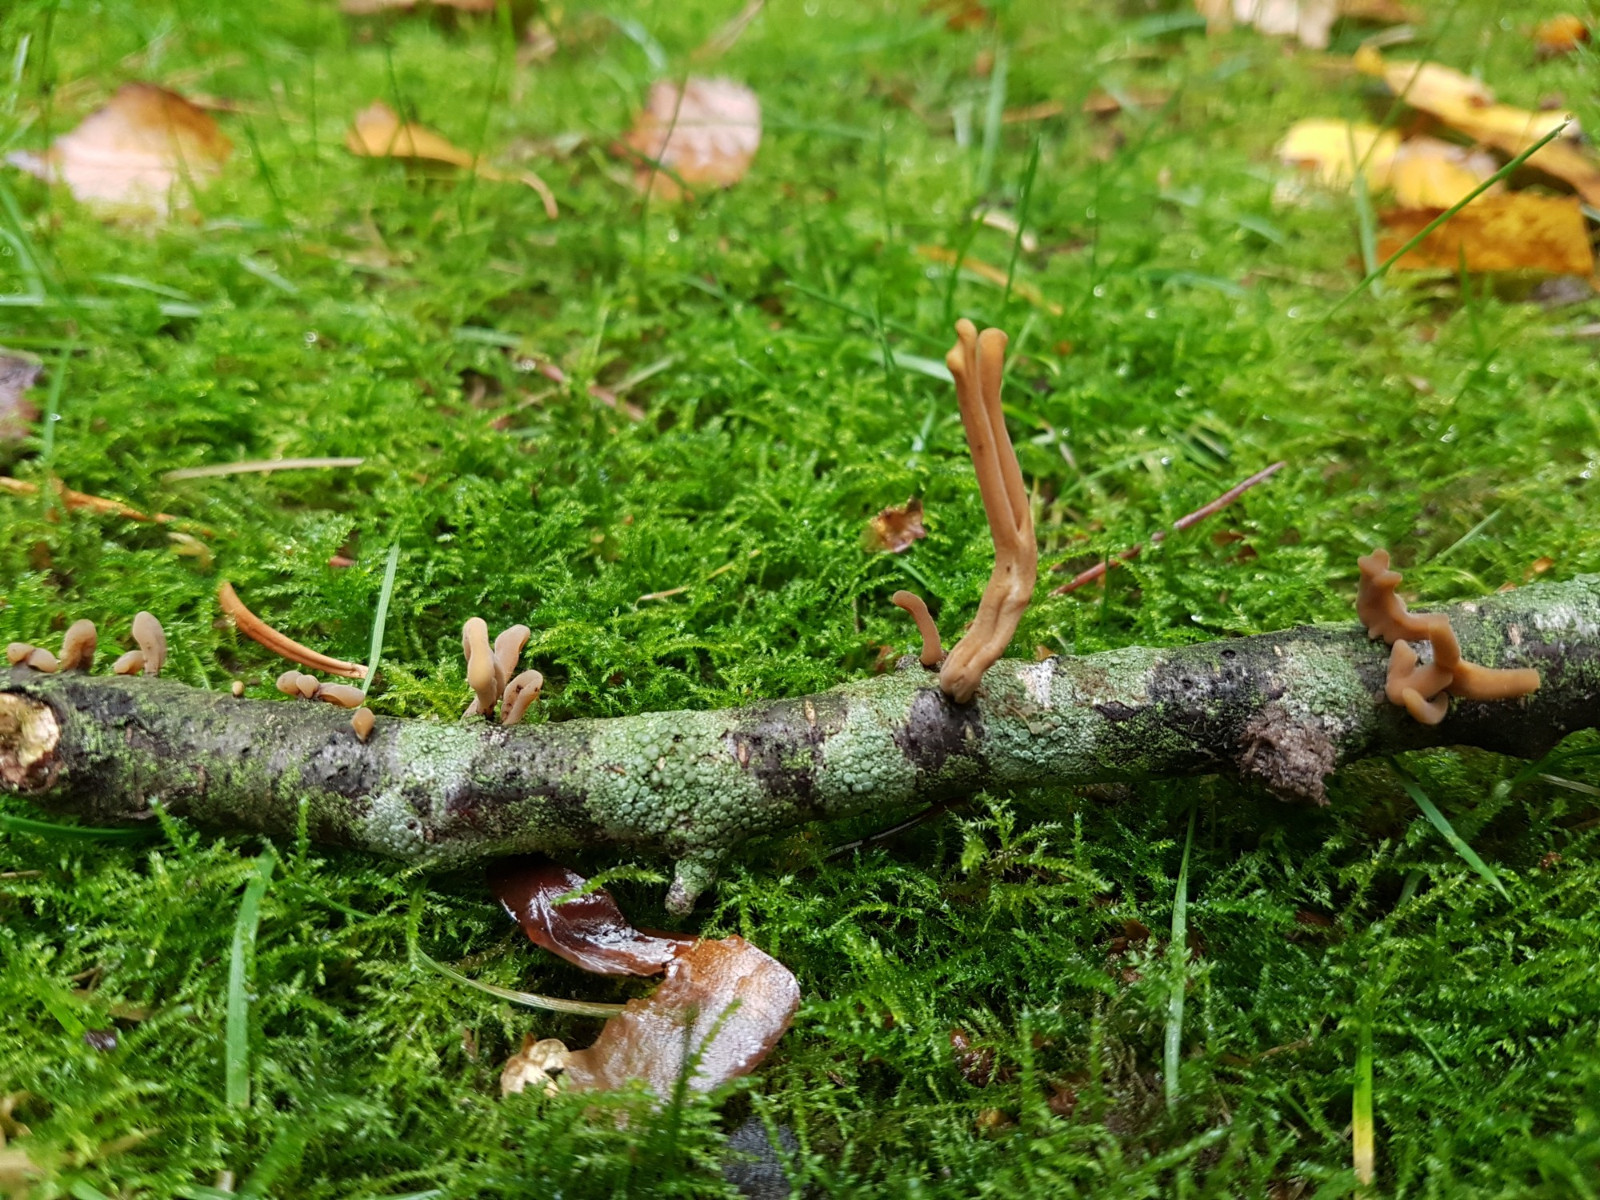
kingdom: Fungi
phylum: Basidiomycota
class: Agaricomycetes
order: Agaricales
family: Typhulaceae
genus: Typhula
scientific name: Typhula fistulosa
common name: pibet rørkølle
